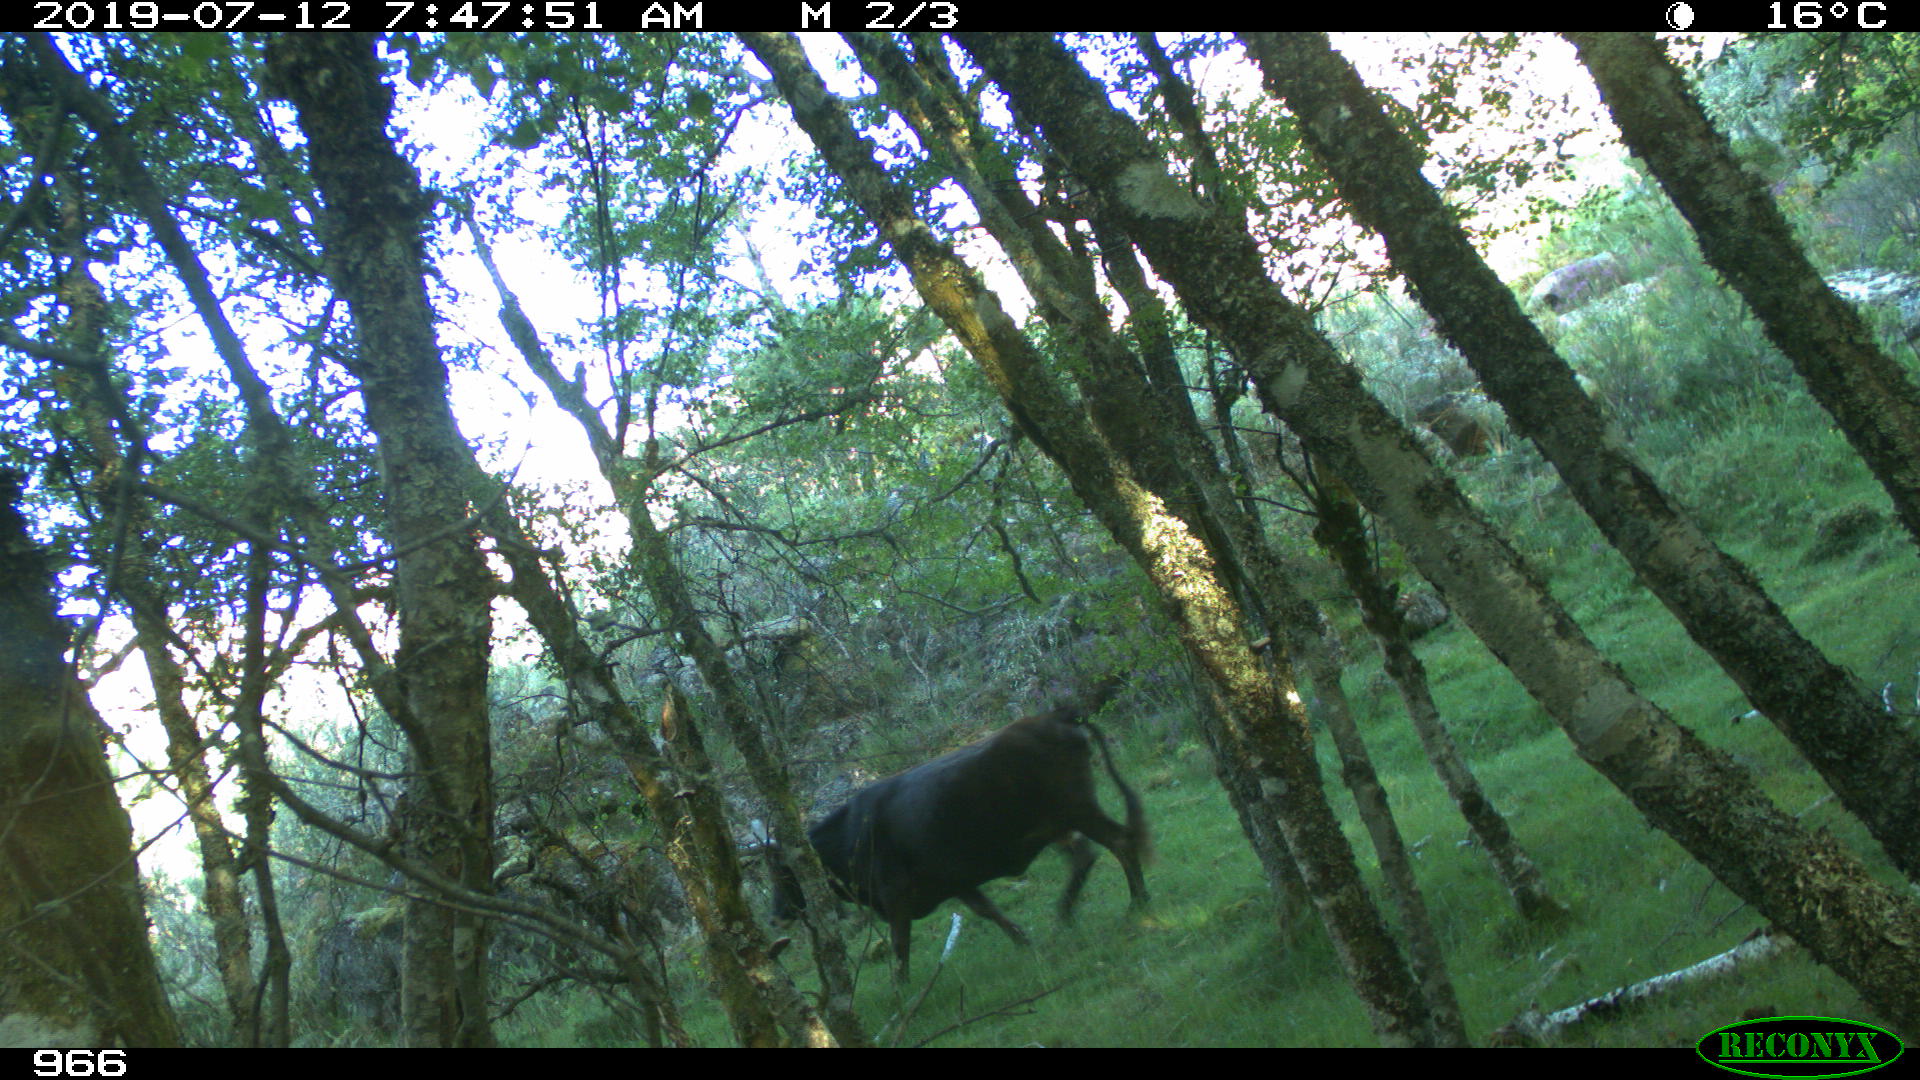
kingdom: Animalia
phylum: Chordata
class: Mammalia
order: Artiodactyla
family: Bovidae
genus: Bos
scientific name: Bos taurus
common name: Domesticated cattle
